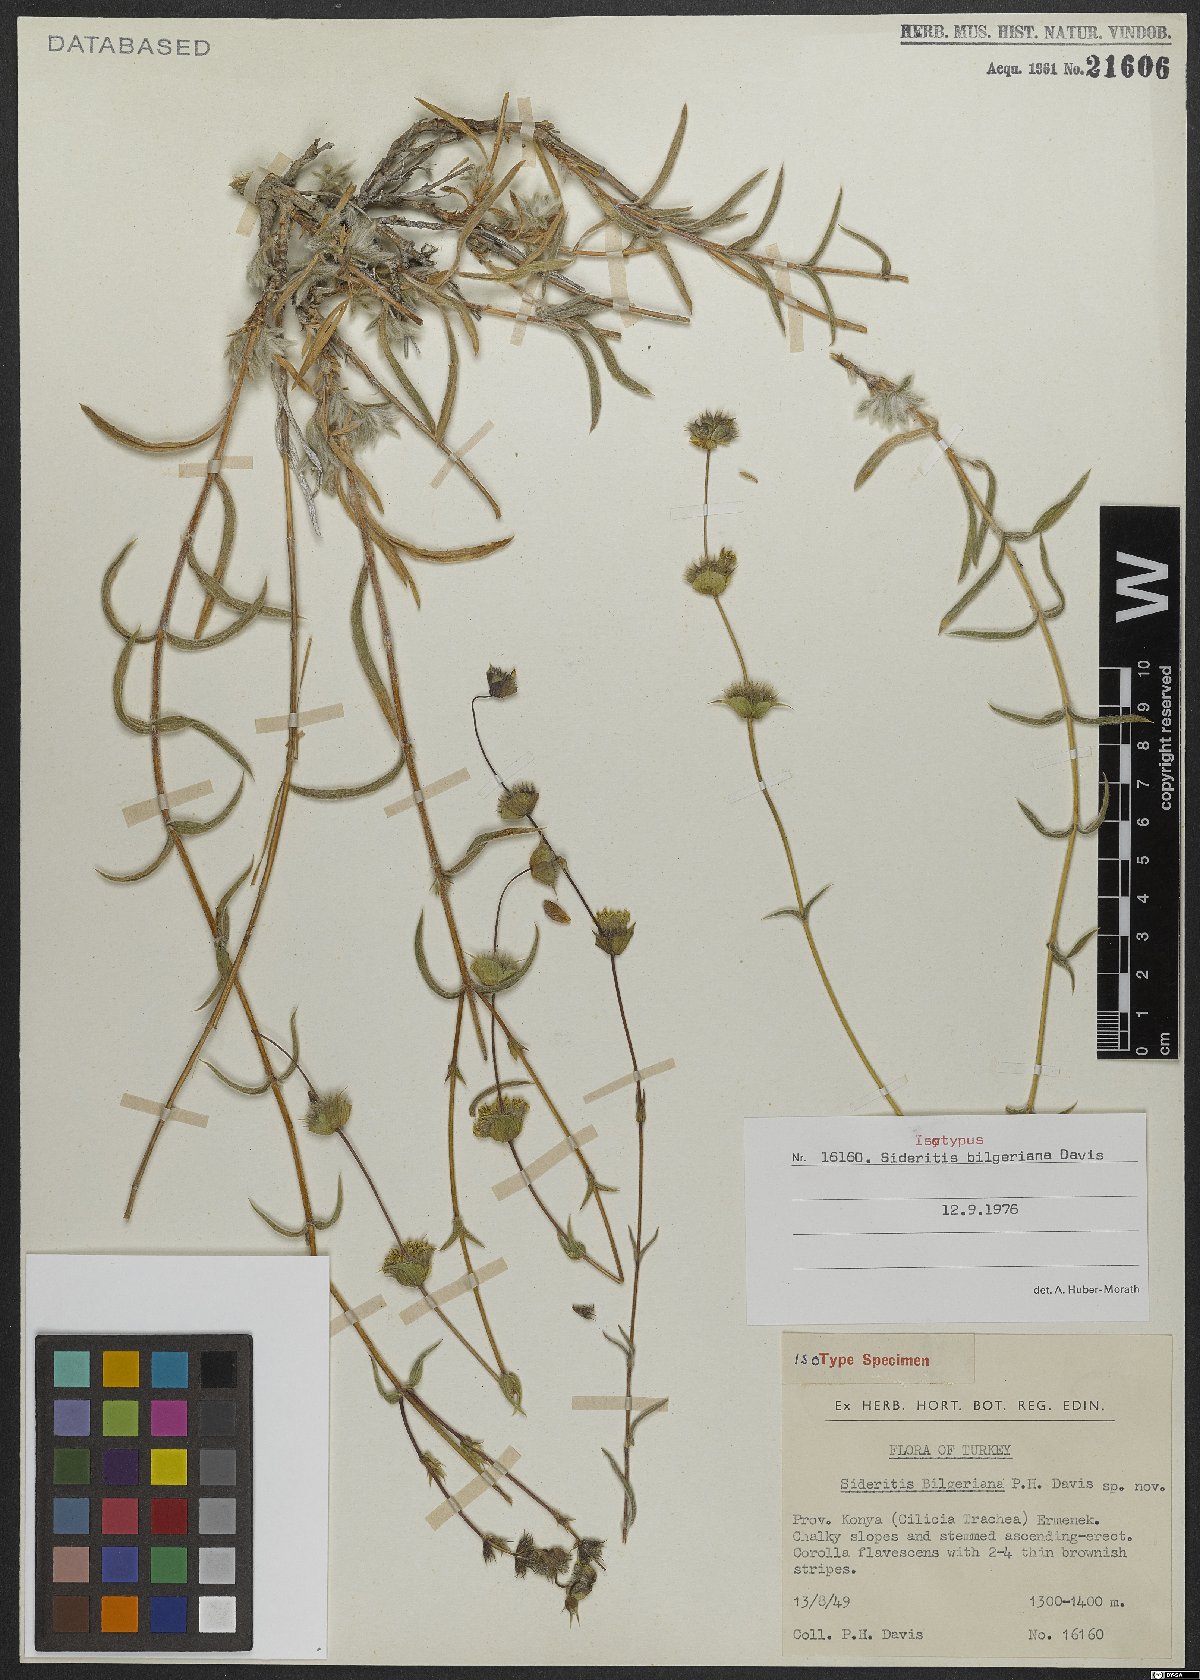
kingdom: Plantae
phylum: Tracheophyta
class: Magnoliopsida
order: Lamiales
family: Lamiaceae
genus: Sideritis
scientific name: Sideritis bilgeriana
